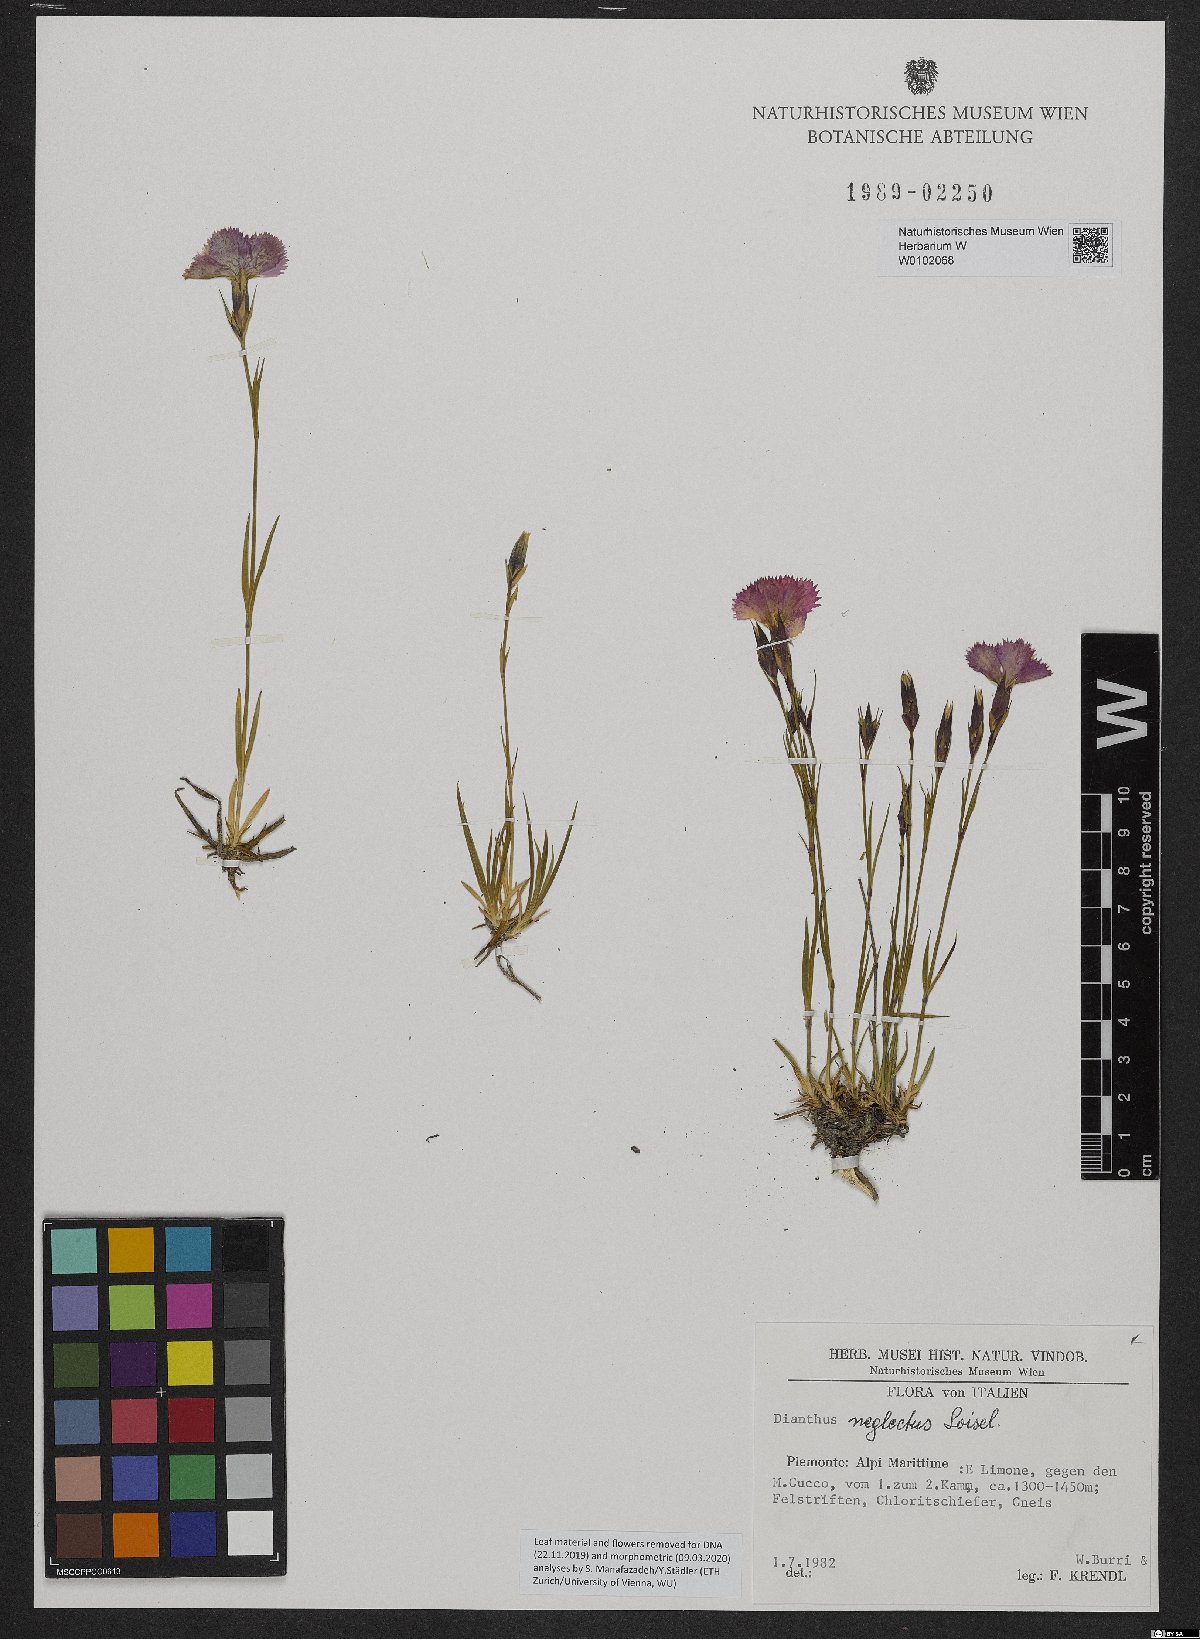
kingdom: Plantae
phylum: Tracheophyta
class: Magnoliopsida
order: Caryophyllales
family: Caryophyllaceae
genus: Dianthus
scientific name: Dianthus seguieri
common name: Ragged pink
